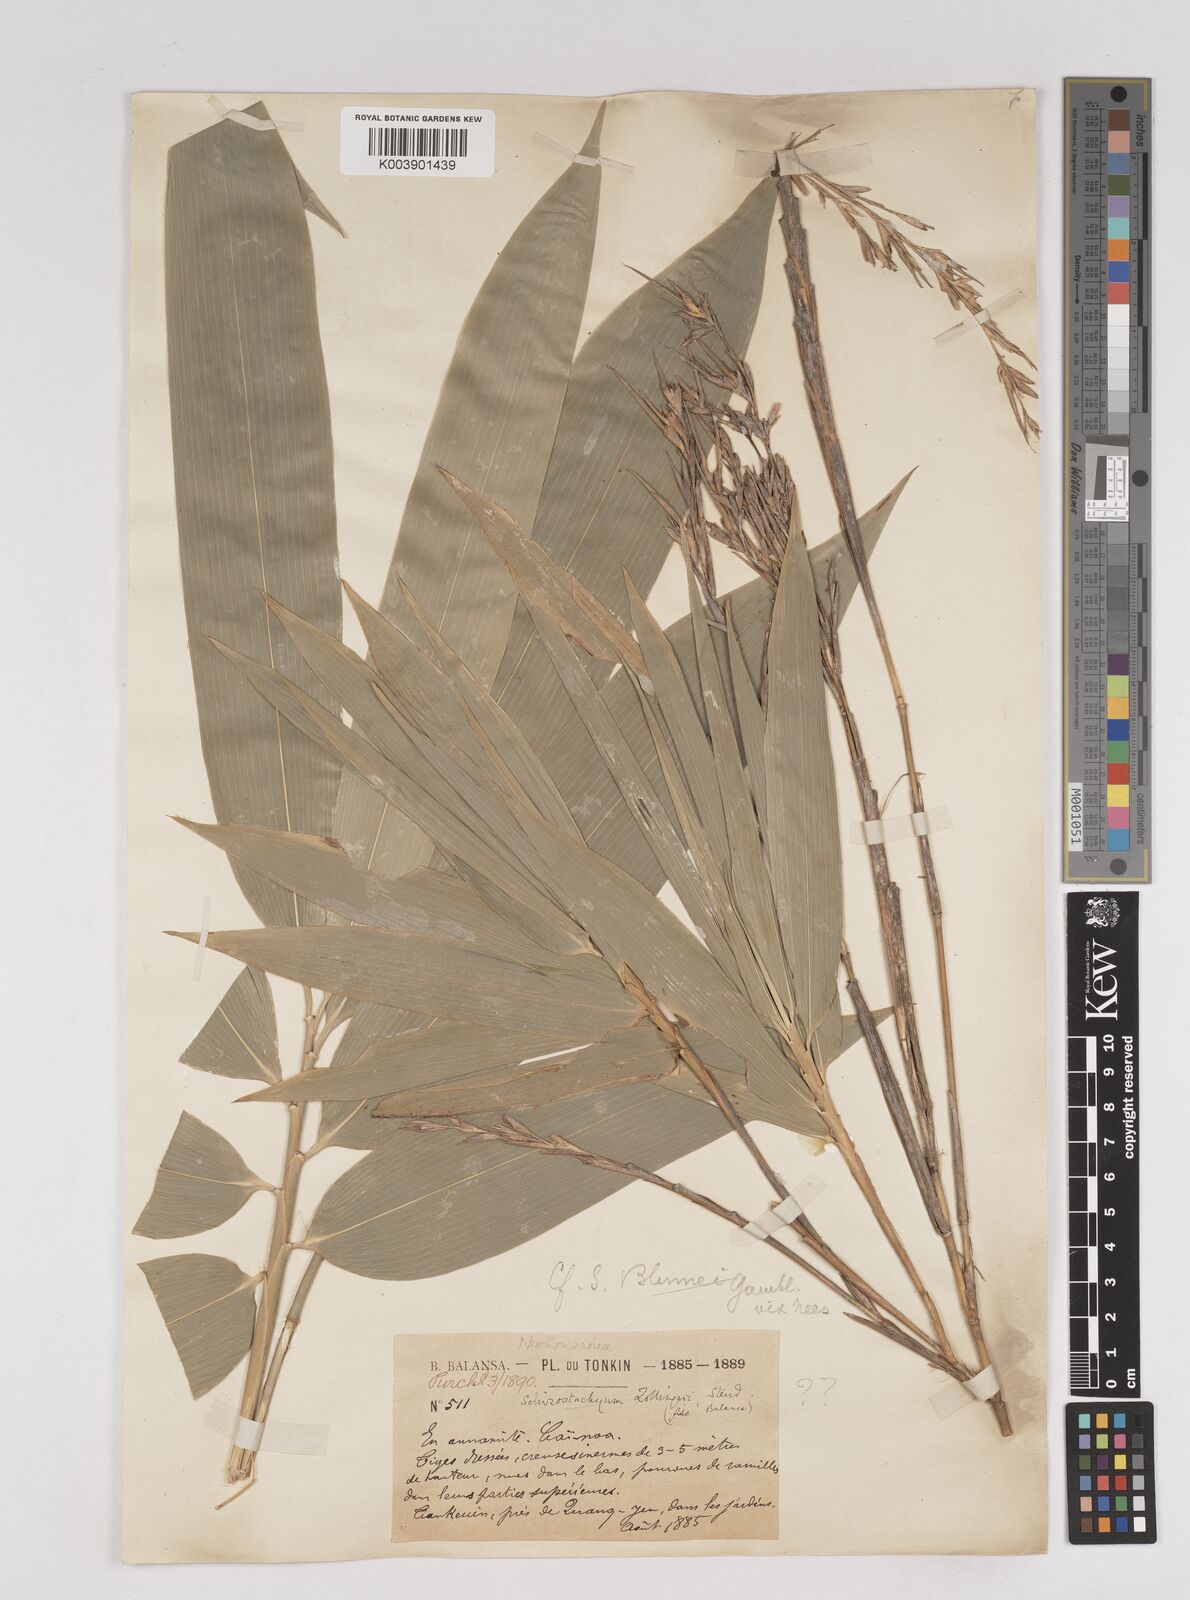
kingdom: Plantae
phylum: Tracheophyta
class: Liliopsida
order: Poales
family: Poaceae
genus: Schizostachyum
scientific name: Schizostachyum
